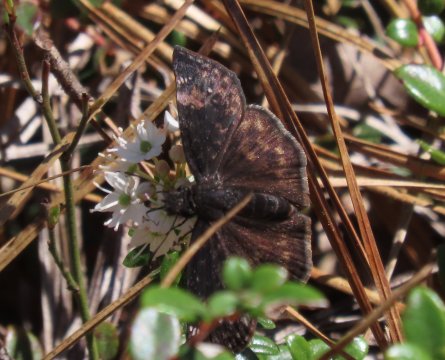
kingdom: Animalia
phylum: Arthropoda
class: Insecta
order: Lepidoptera
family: Hesperiidae
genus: Gesta
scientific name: Gesta
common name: Wild Indigo Duskywing
